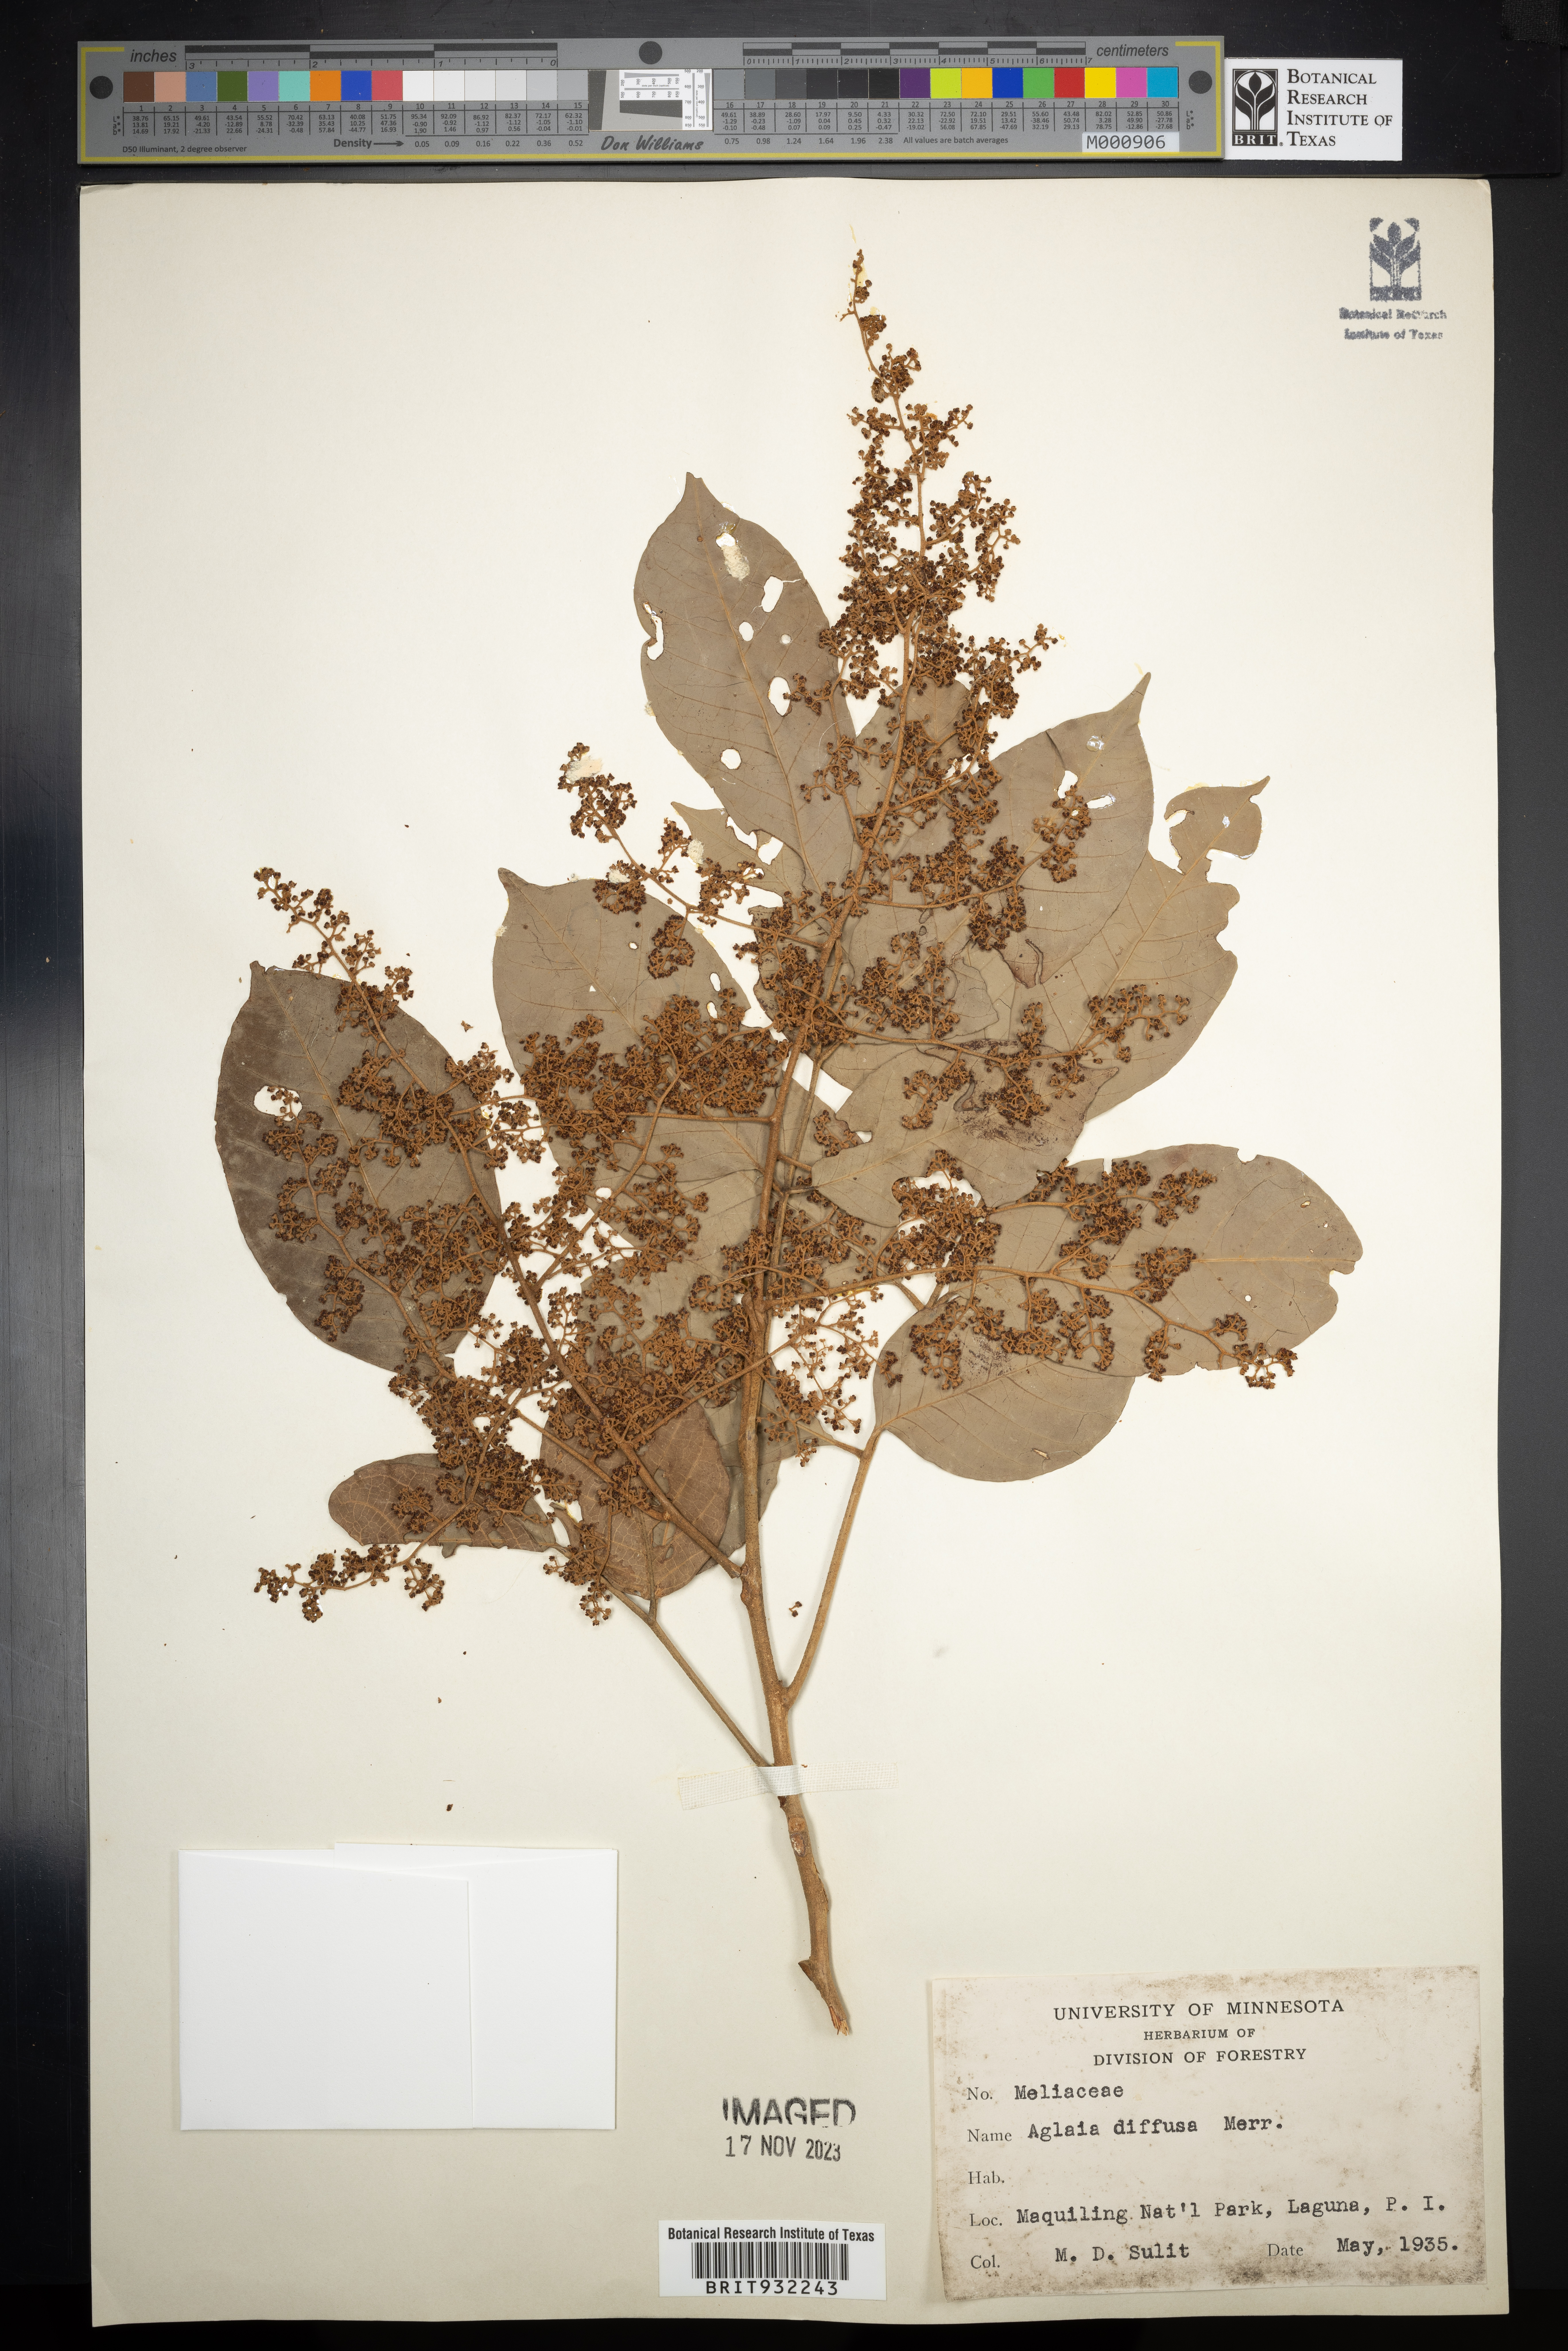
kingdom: Plantae
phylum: Tracheophyta
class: Magnoliopsida
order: Sapindales
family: Meliaceae
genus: Aglaia
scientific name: Aglaia
